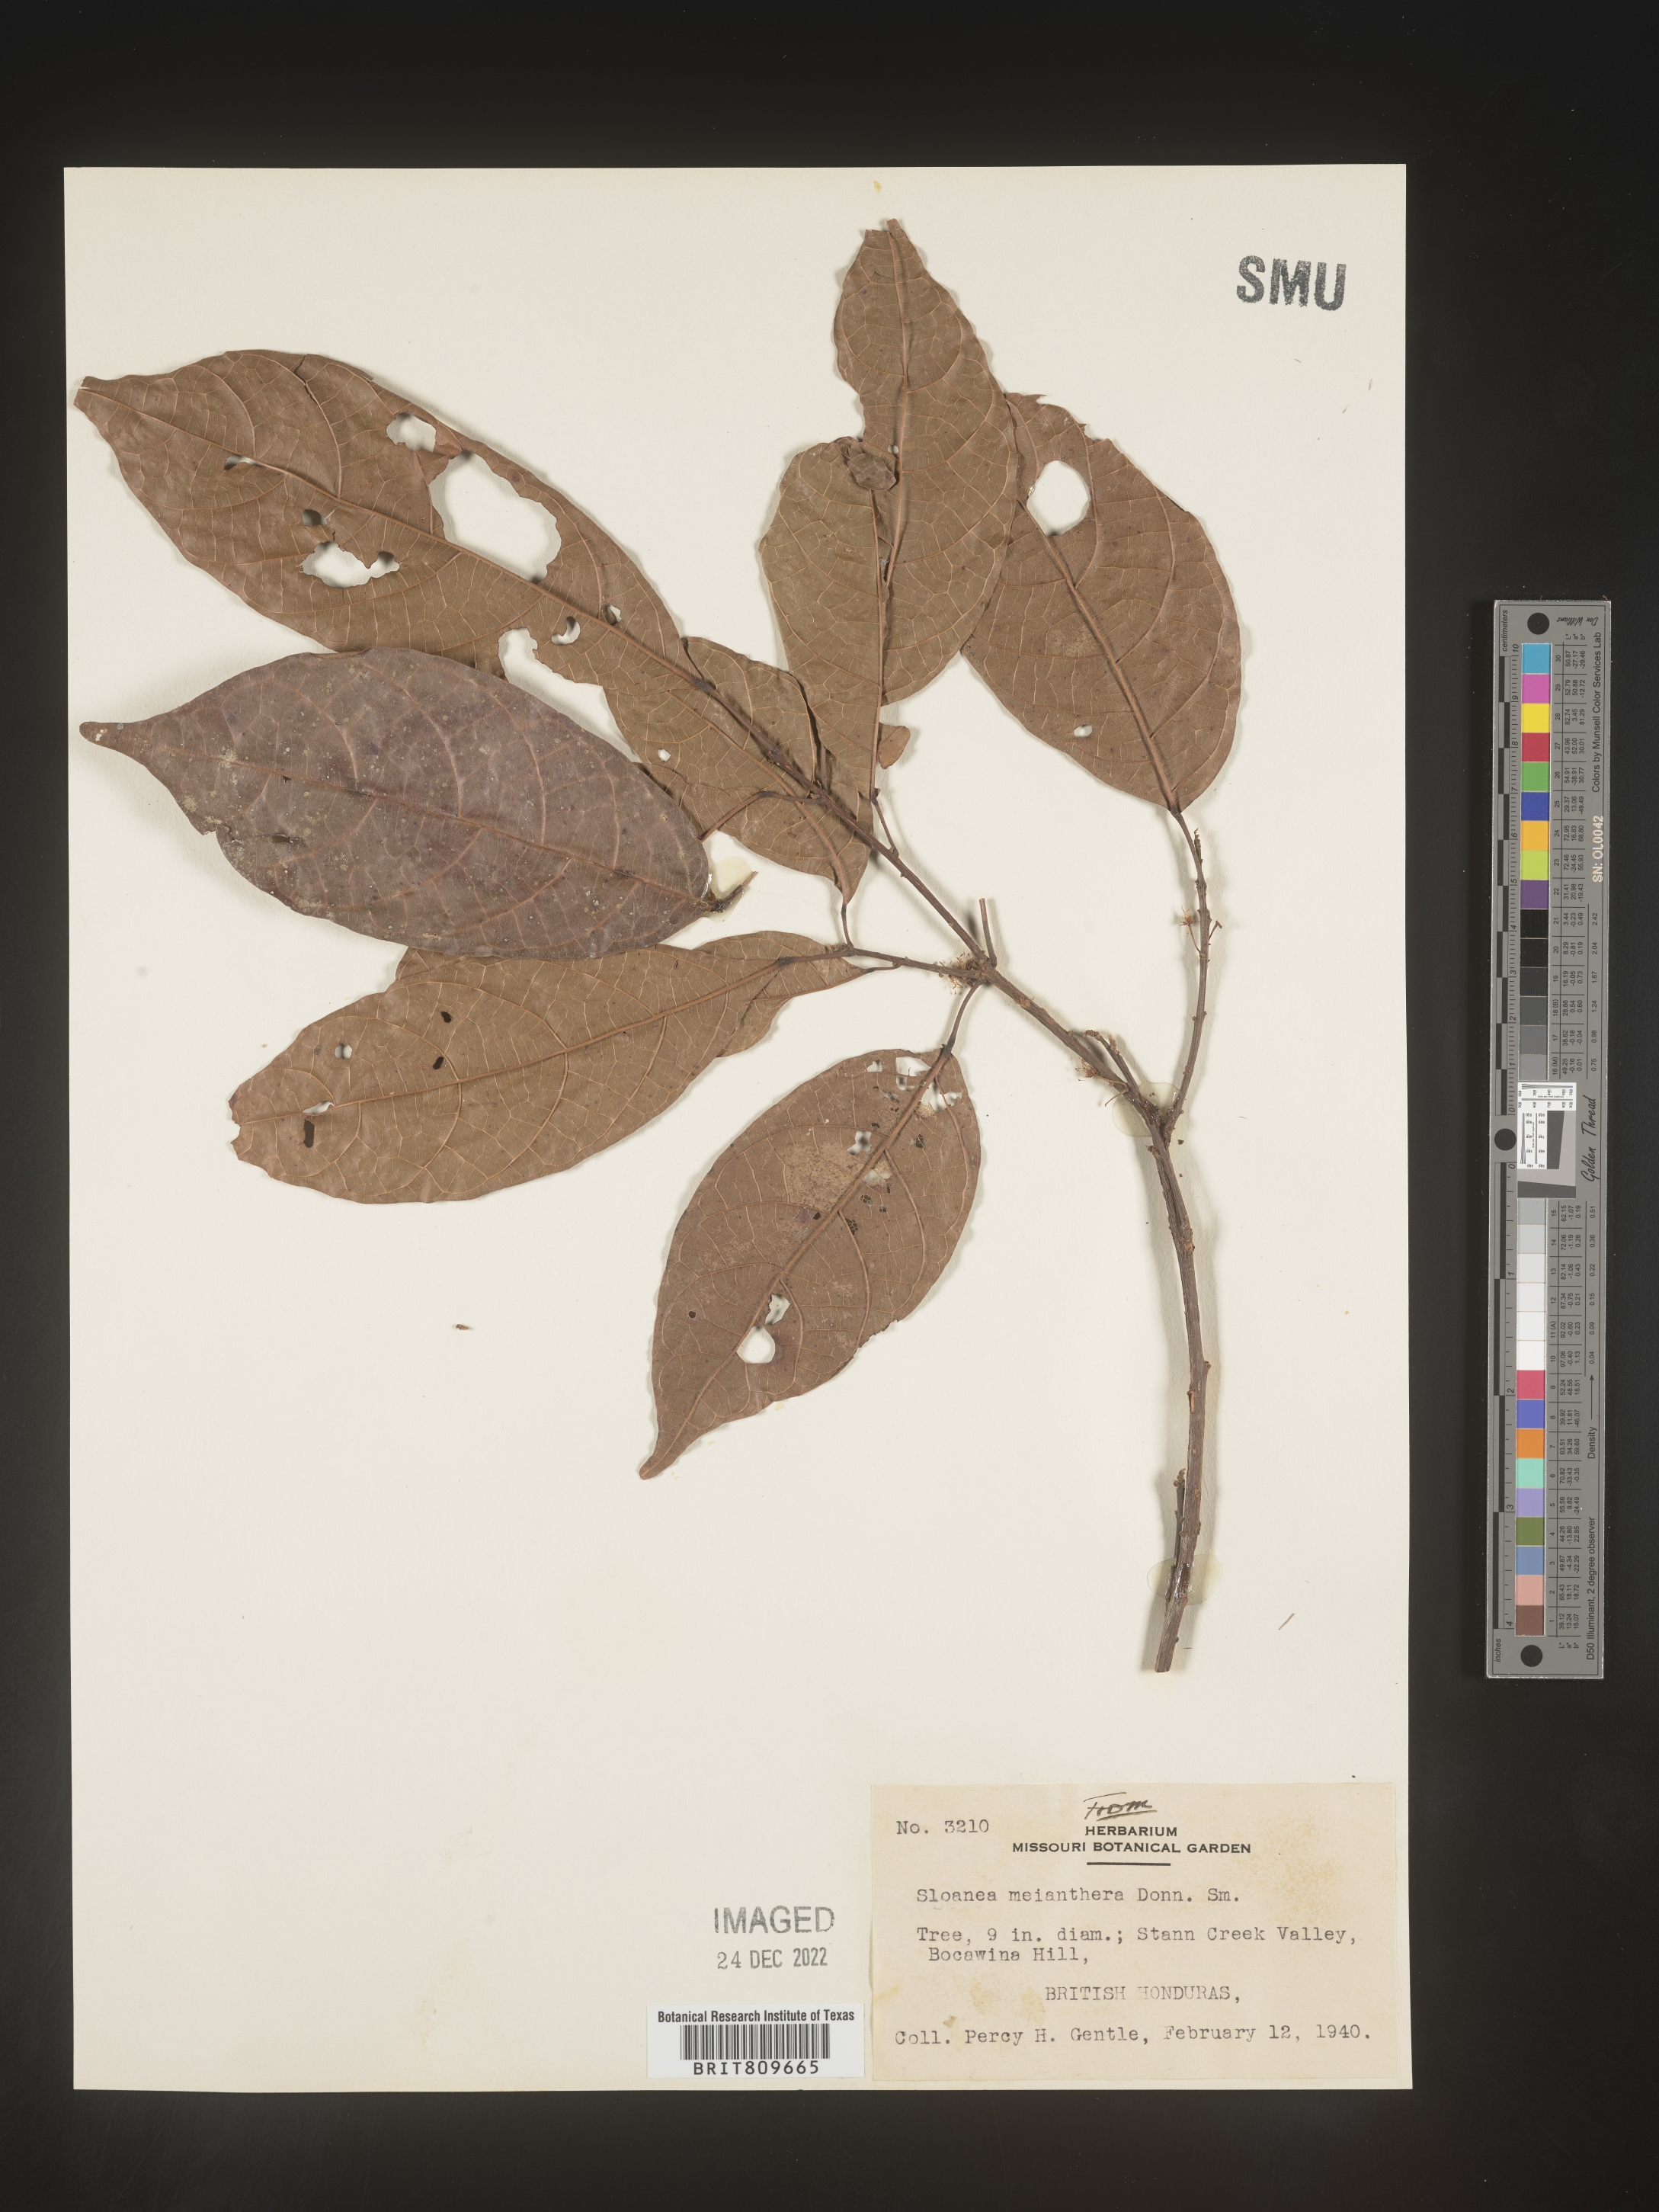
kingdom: Plantae
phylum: Tracheophyta
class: Magnoliopsida
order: Oxalidales
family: Elaeocarpaceae
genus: Sloanea
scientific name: Sloanea
